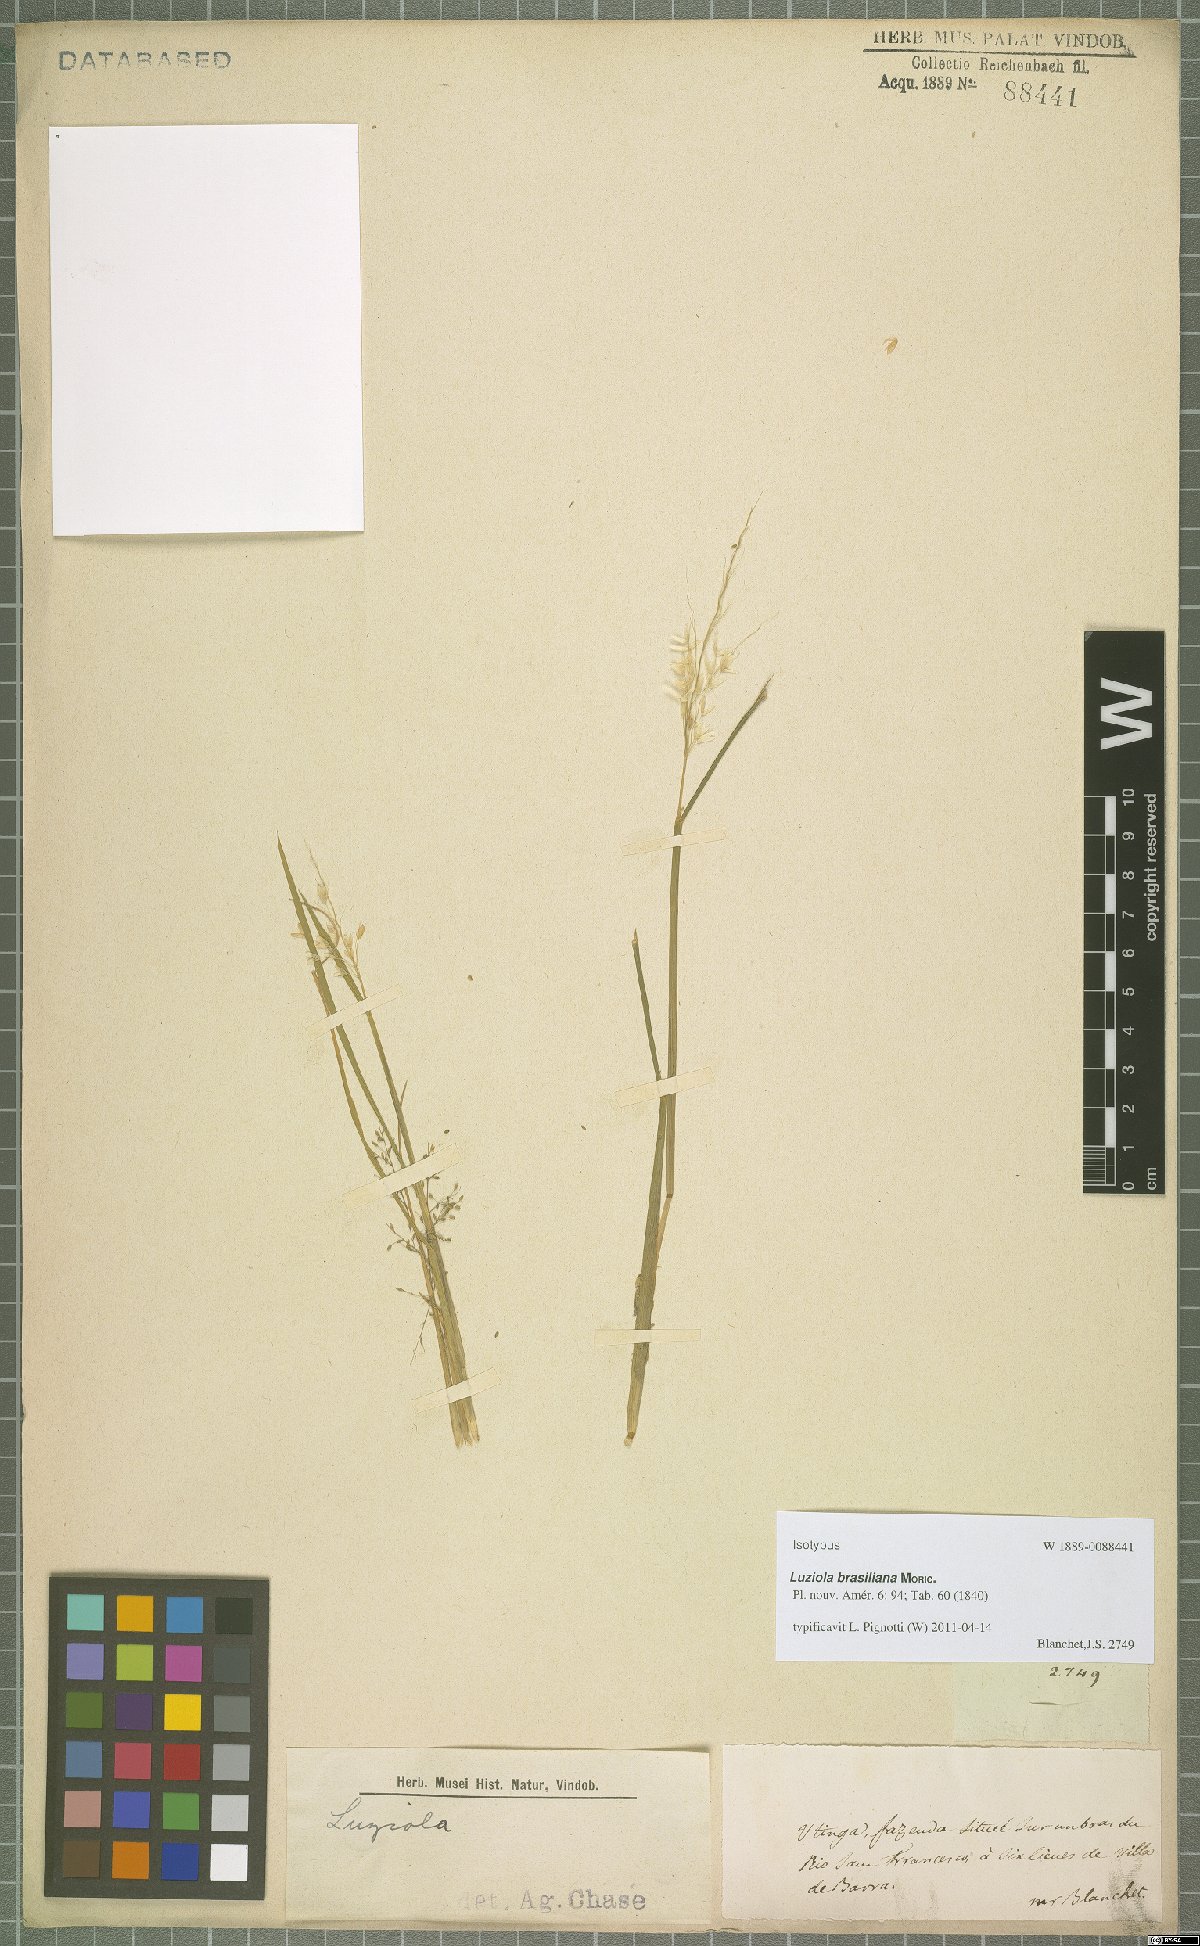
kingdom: Plantae
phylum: Tracheophyta
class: Liliopsida
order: Poales
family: Poaceae
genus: Luziola
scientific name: Luziola brasiliana
